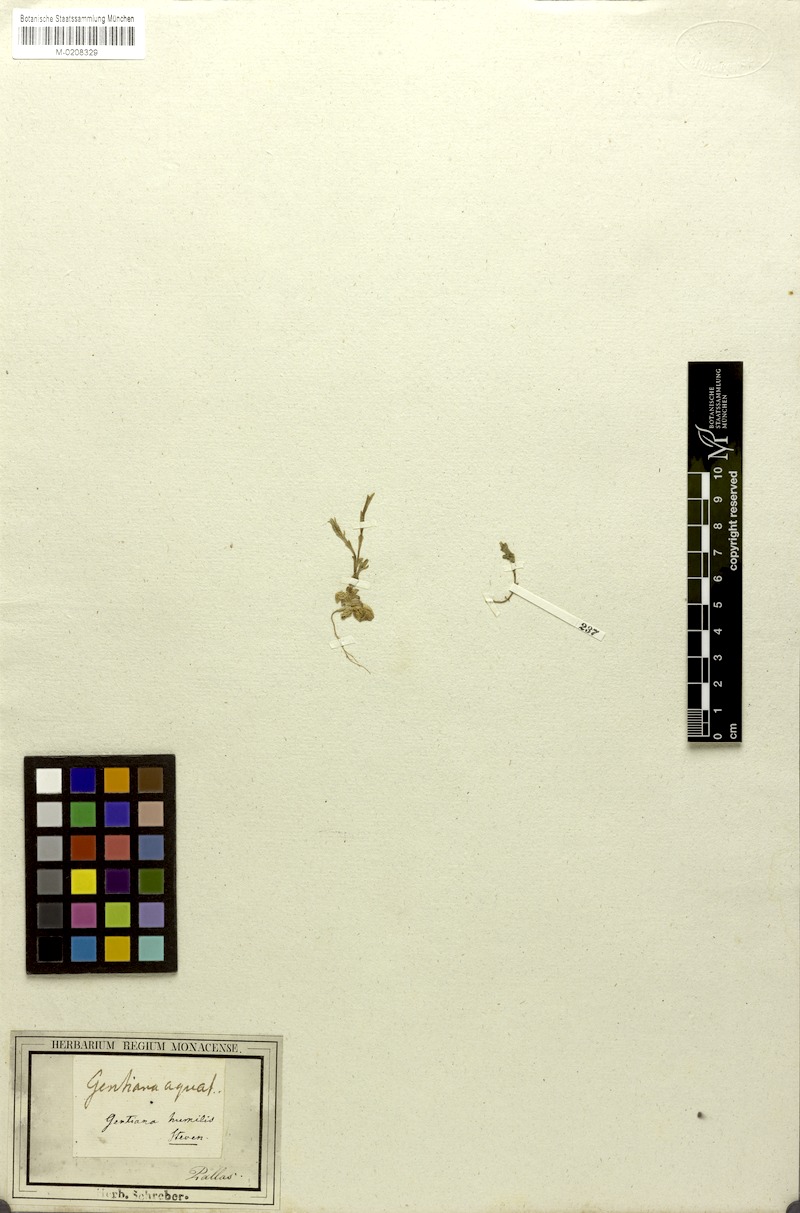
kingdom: Plantae
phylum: Tracheophyta
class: Magnoliopsida
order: Gentianales
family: Gentianaceae
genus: Gentiana
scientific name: Gentiana aquatica
